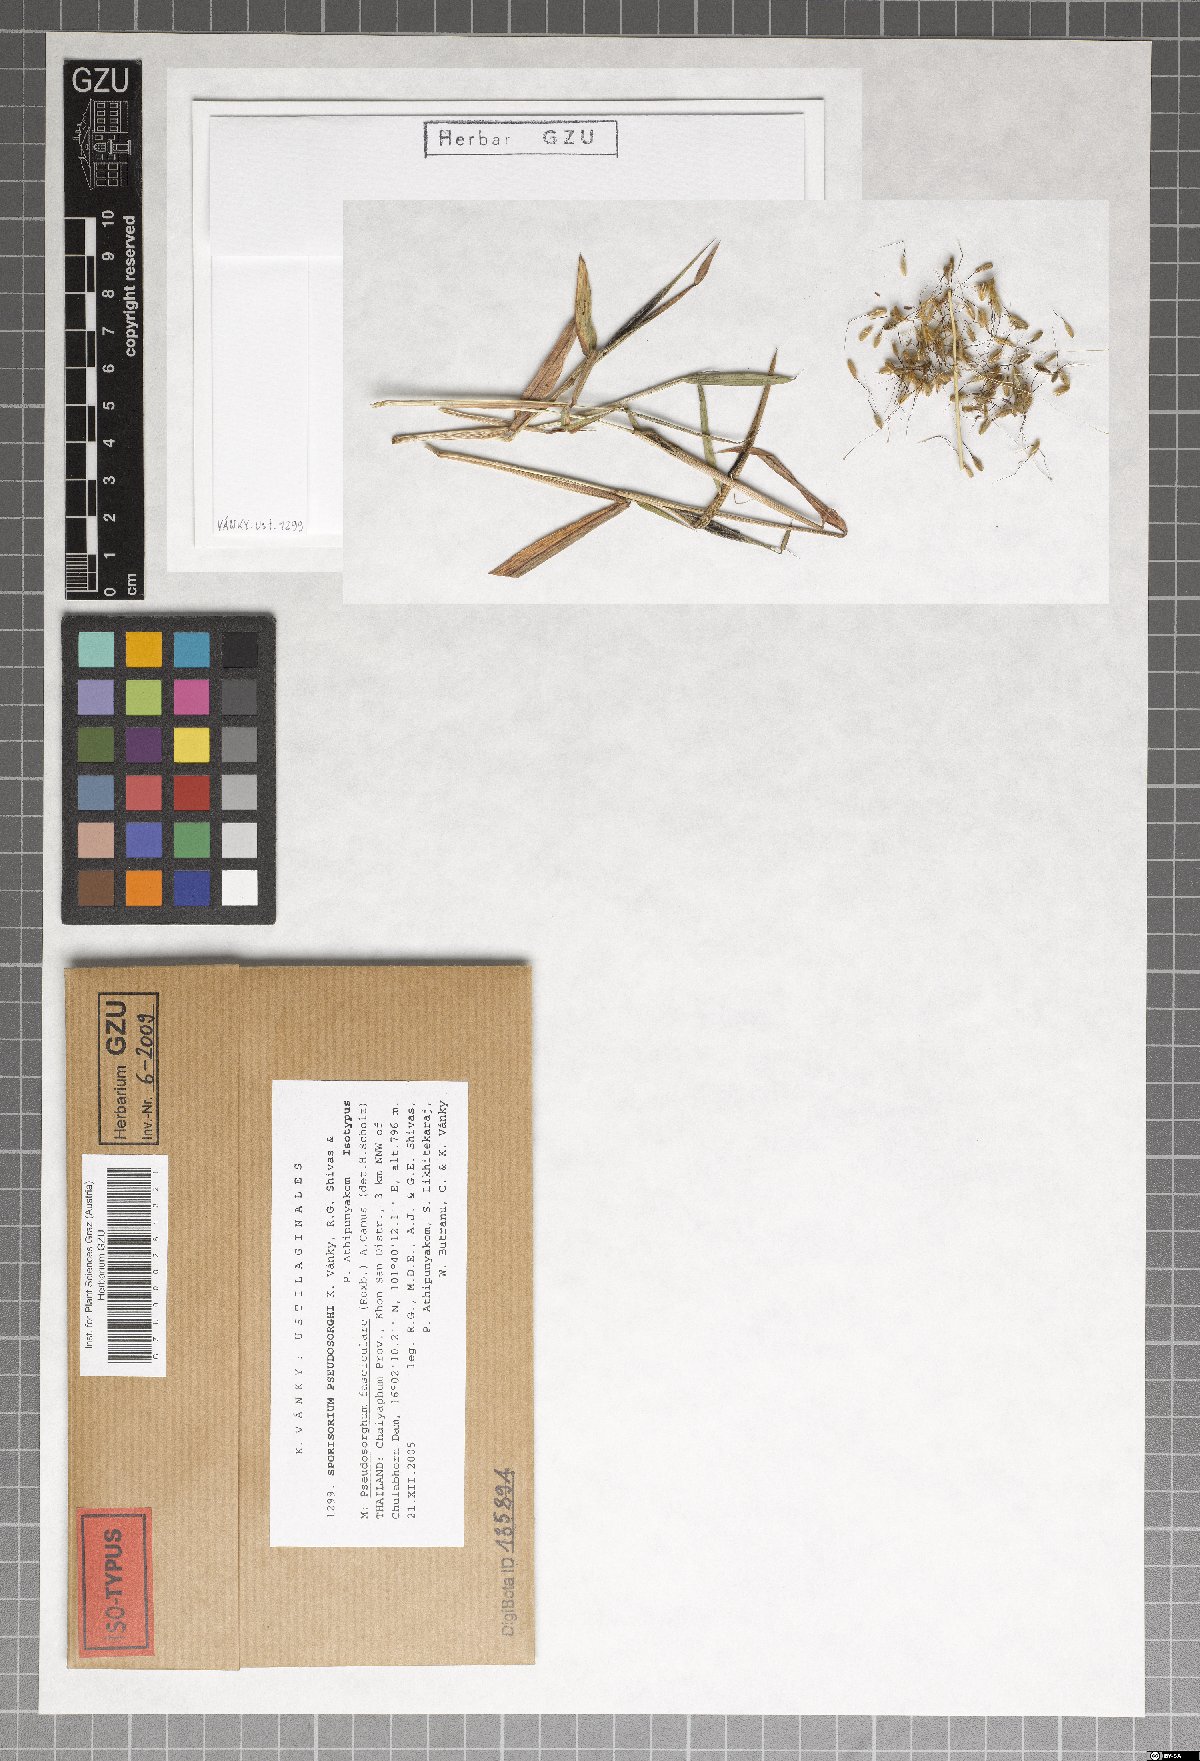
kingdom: Fungi
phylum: Basidiomycota
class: Ustilaginomycetes
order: Ustilaginales
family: Ustilaginaceae
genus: Sporisorium
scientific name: Sporisorium pseudosorghi
